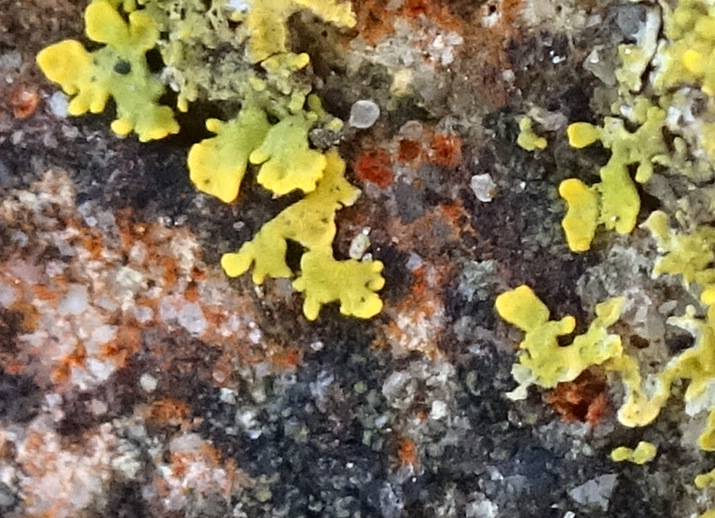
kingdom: Fungi
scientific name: Fungi
